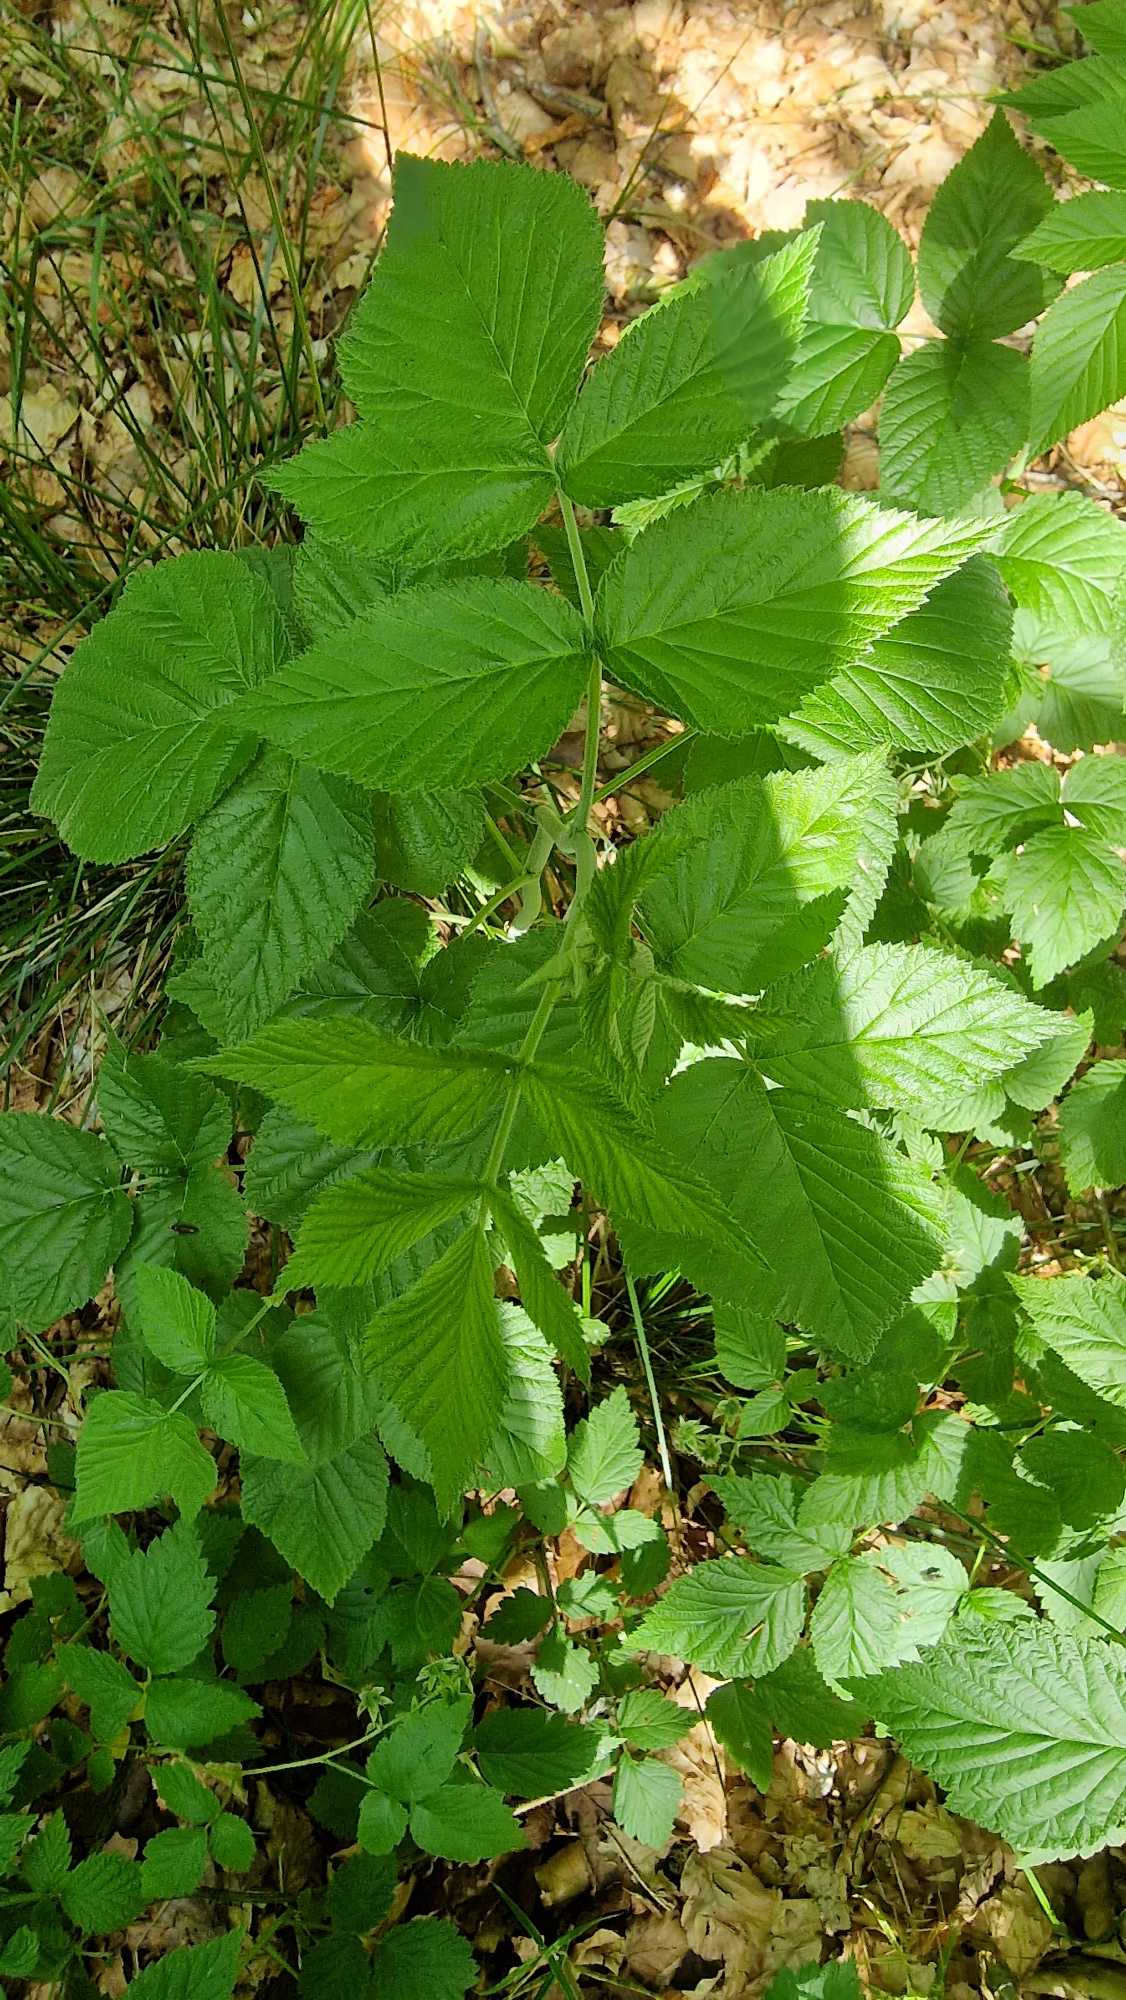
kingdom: Plantae
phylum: Tracheophyta
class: Magnoliopsida
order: Rosales
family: Rosaceae
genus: Rubus
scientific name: Rubus idaeus
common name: Hindbær
